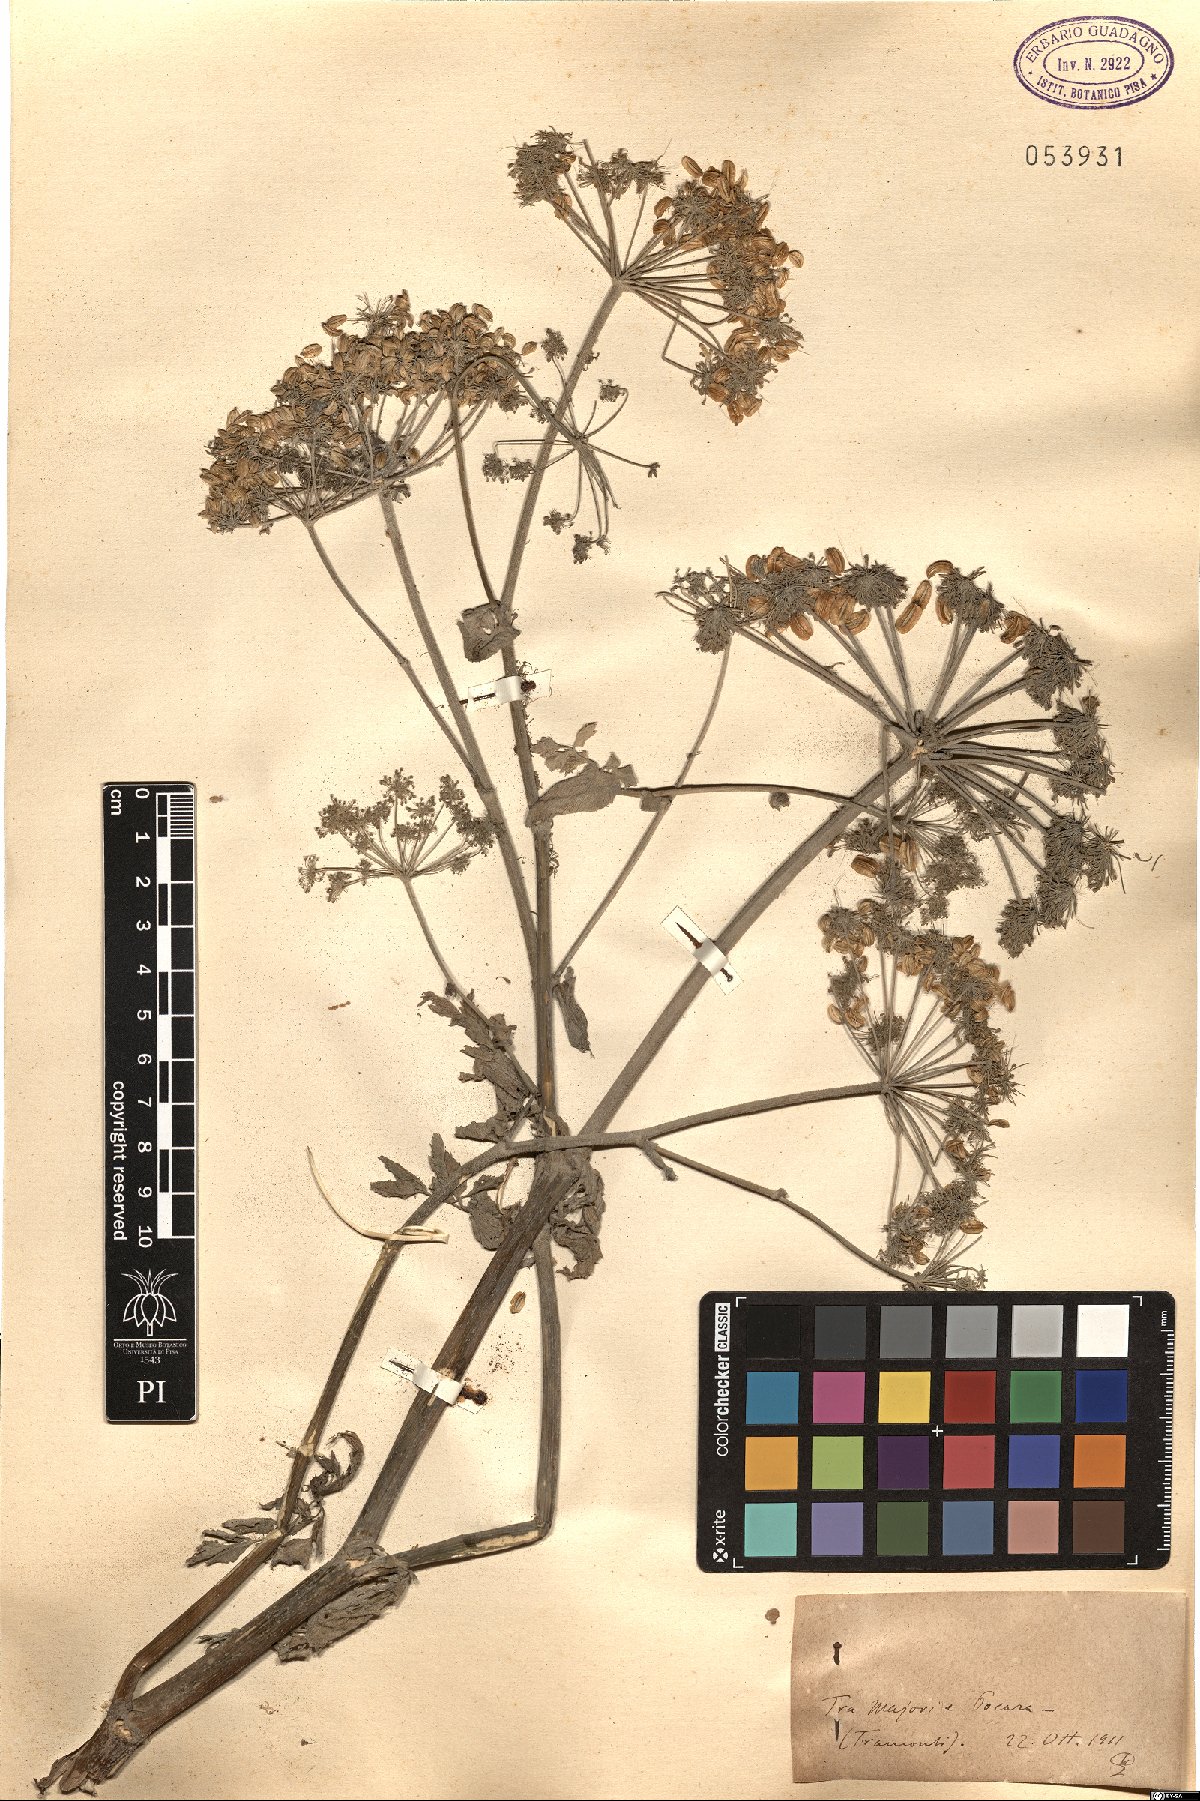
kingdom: Plantae
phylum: Tracheophyta
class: Magnoliopsida
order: Apiales
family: Apiaceae
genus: Angelica
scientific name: Angelica
